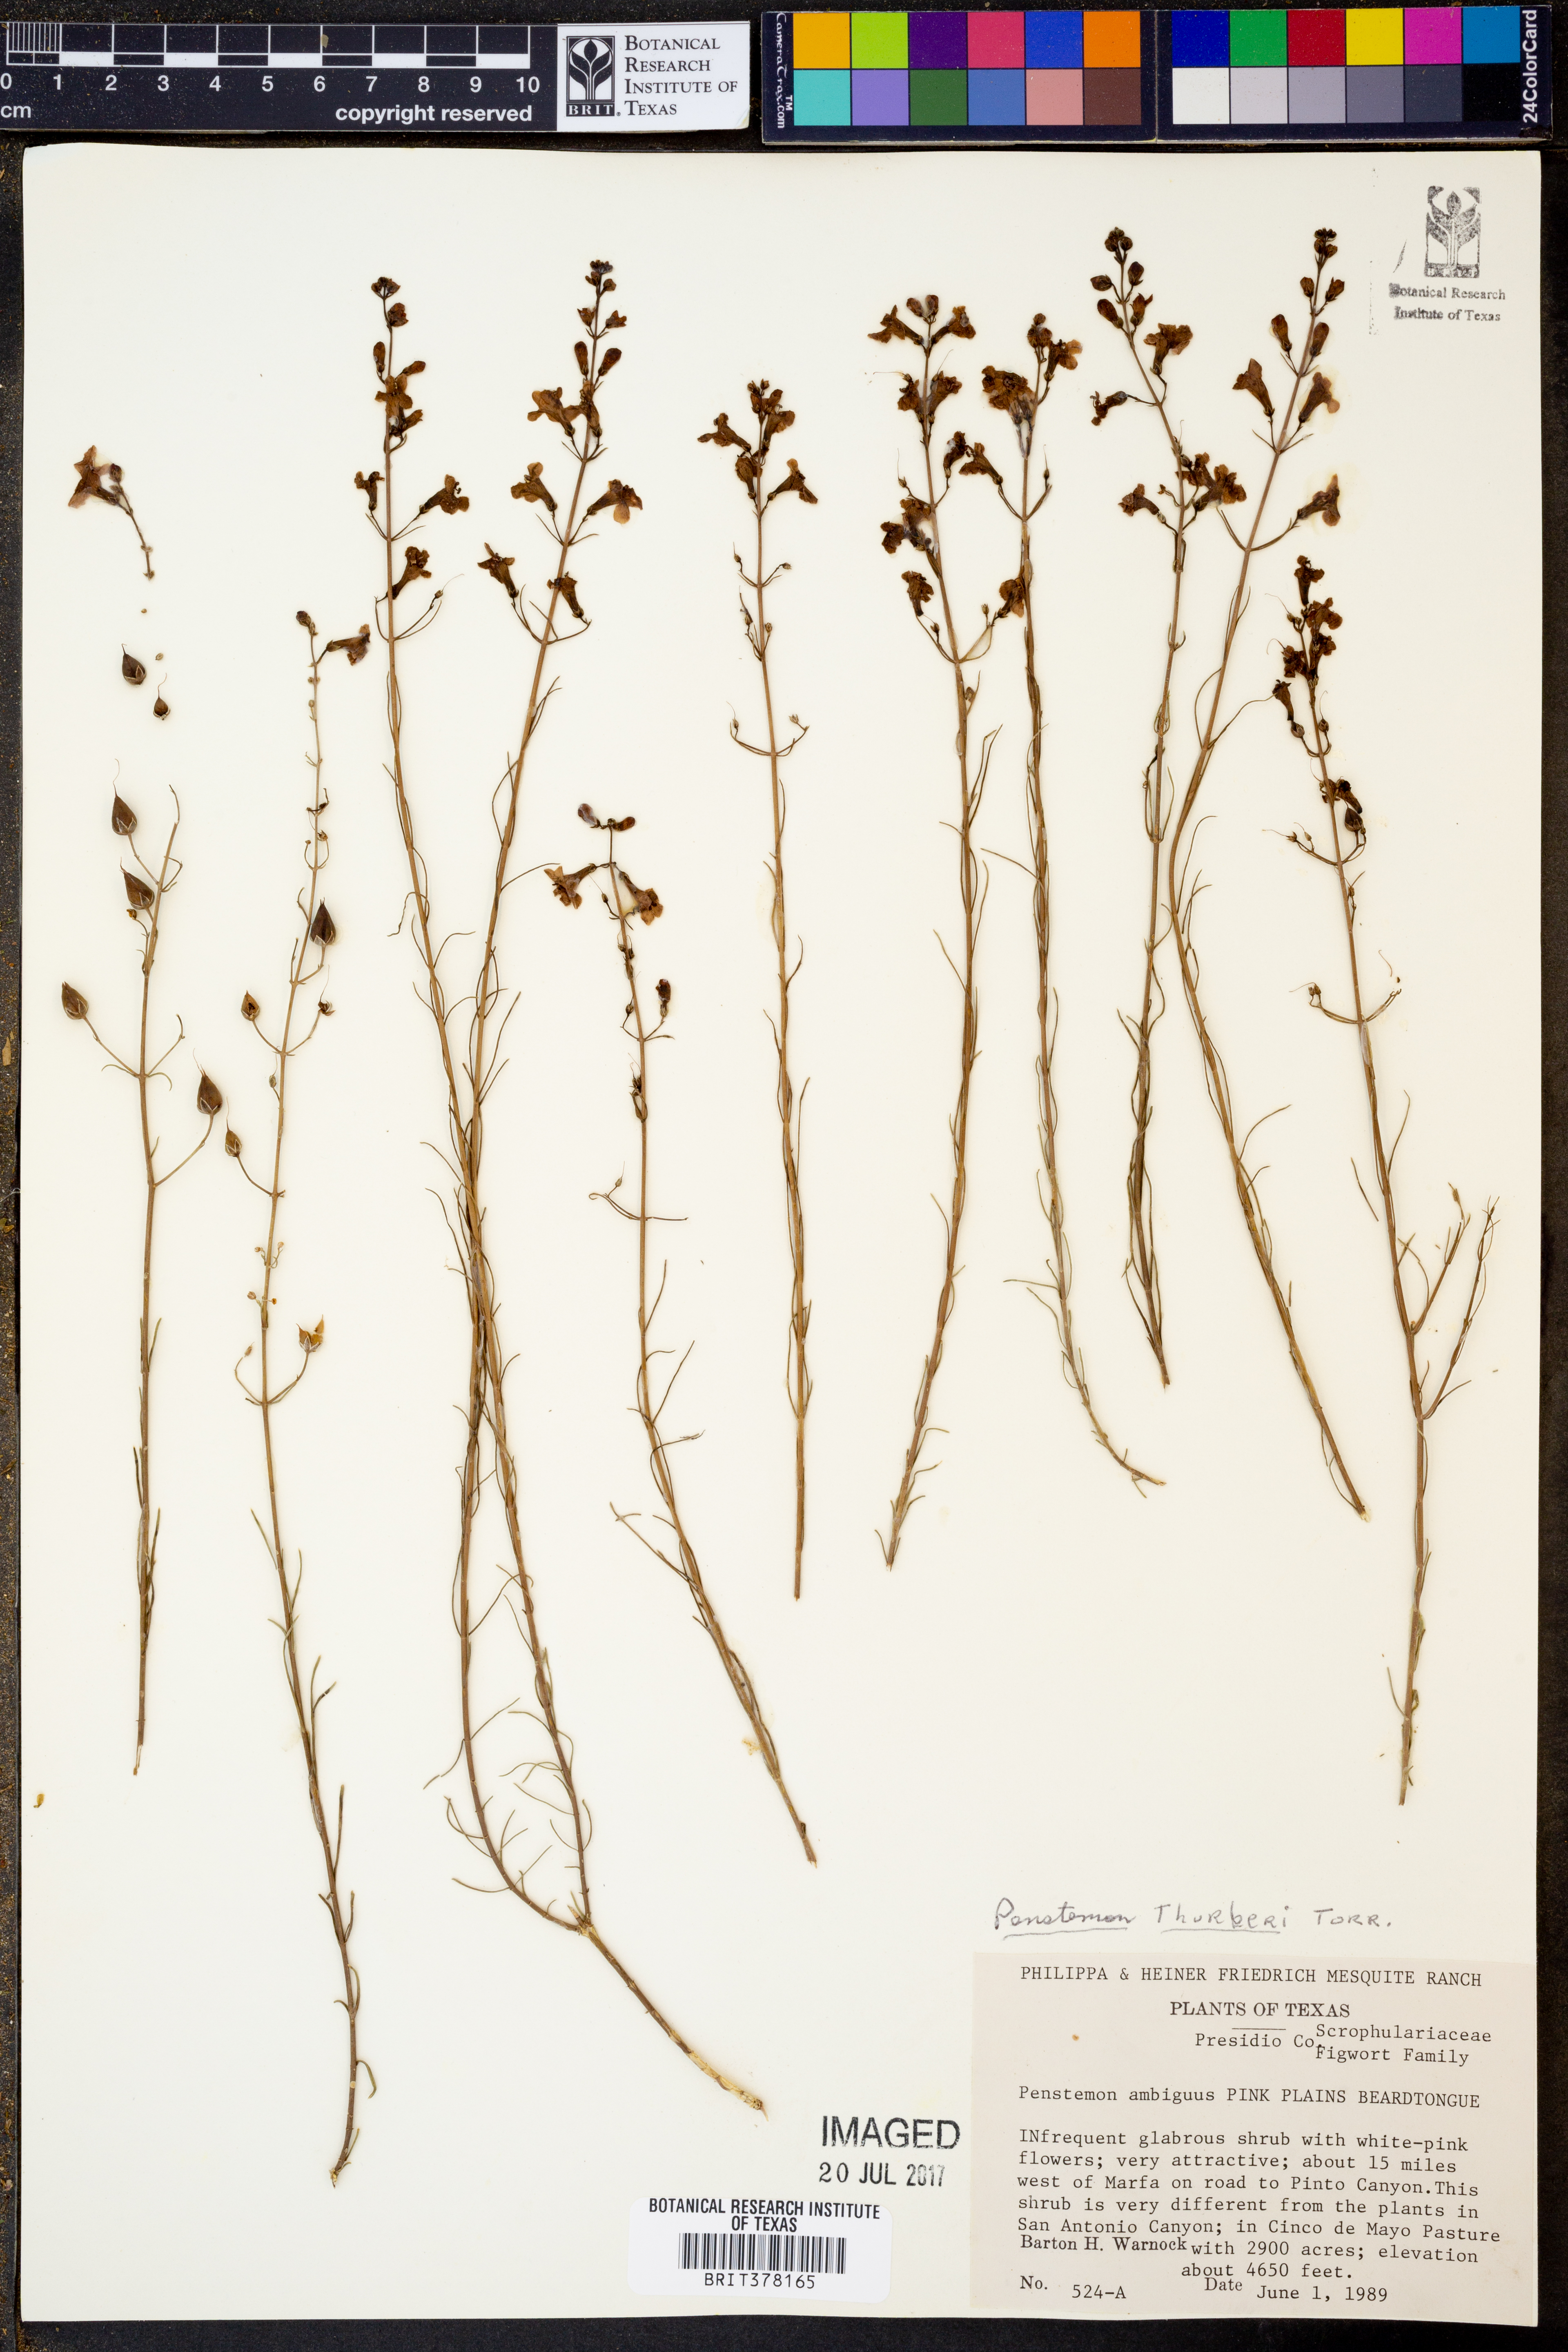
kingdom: Plantae
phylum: Tracheophyta
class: Magnoliopsida
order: Lamiales
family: Plantaginaceae
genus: Penstemon
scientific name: Penstemon thurberi
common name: Thurber's beardtongue
